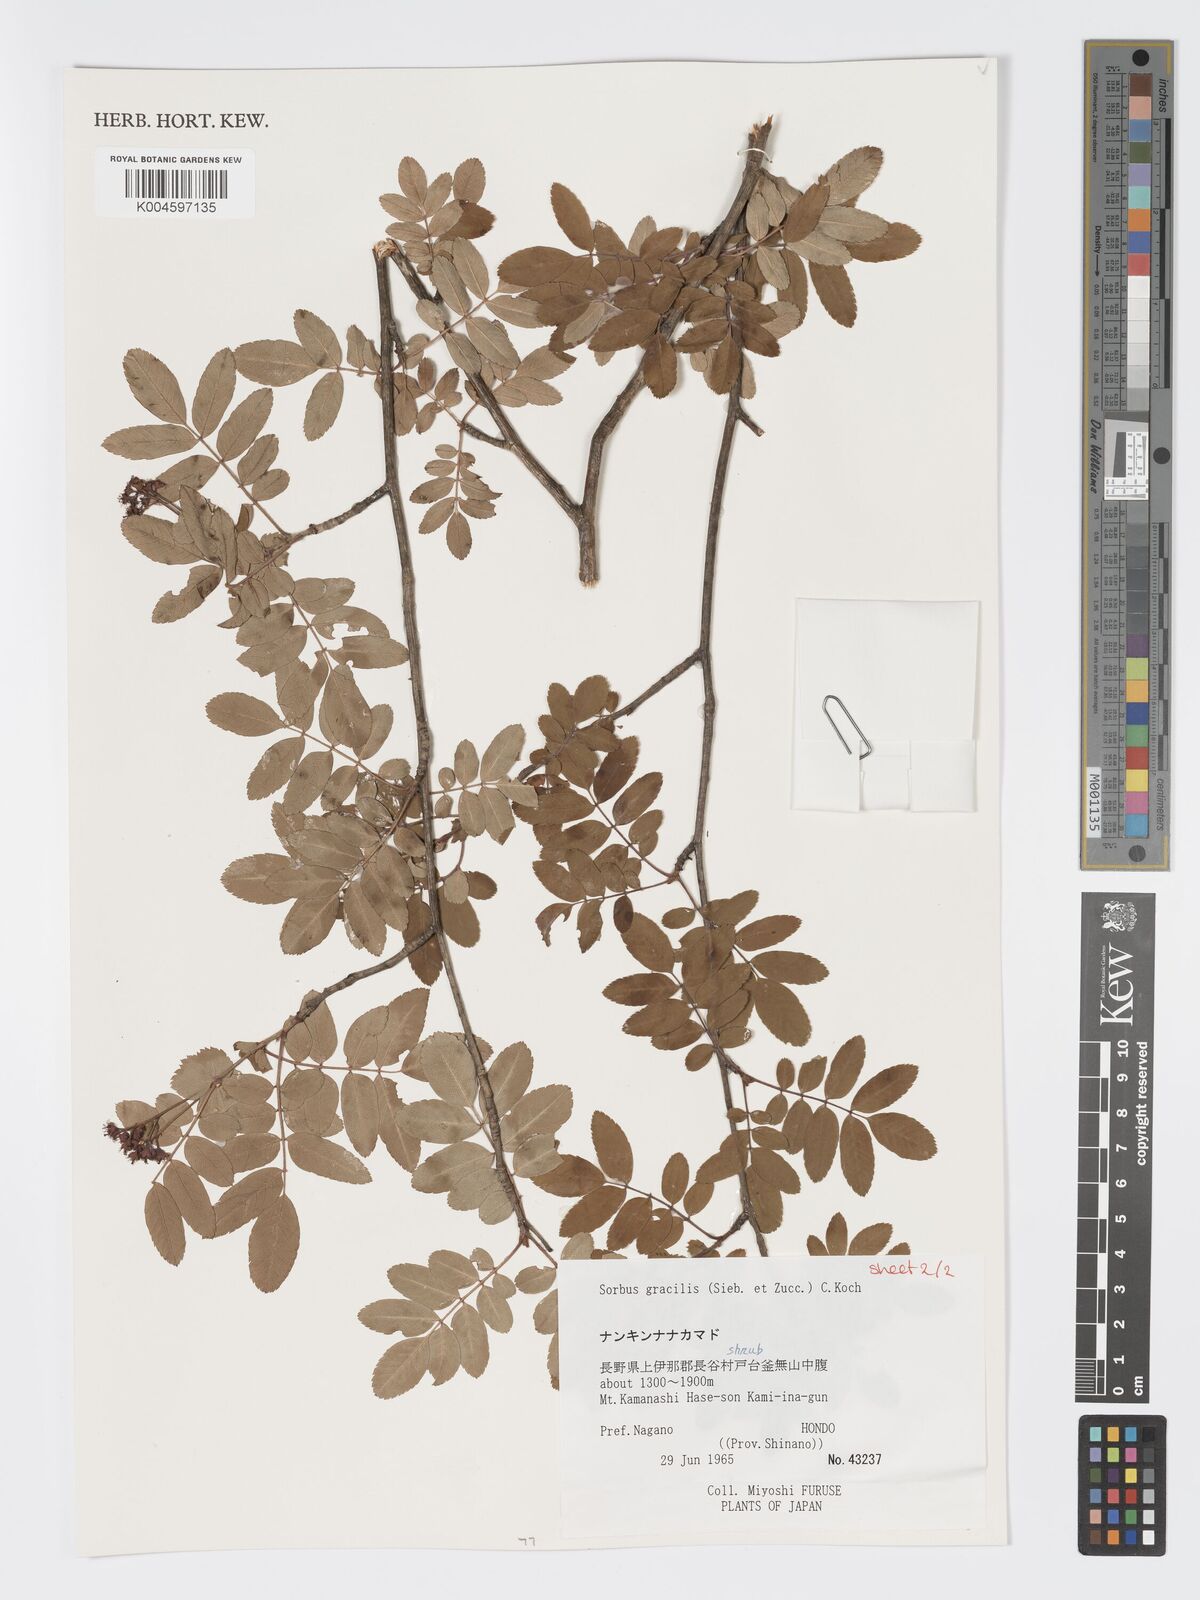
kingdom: Plantae
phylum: Tracheophyta
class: Magnoliopsida
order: Rosales
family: Rosaceae
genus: Sorbus
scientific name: Sorbus gracilis
